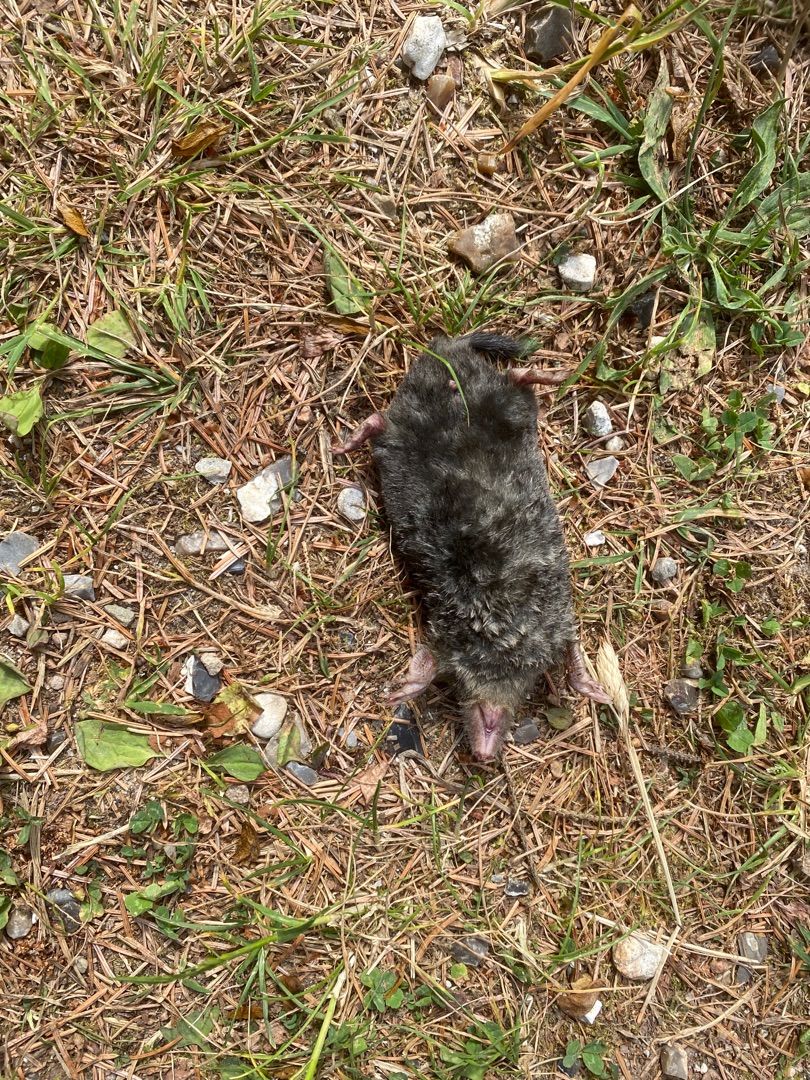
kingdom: Animalia
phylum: Chordata
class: Mammalia
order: Soricomorpha
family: Talpidae
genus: Talpa
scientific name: Talpa europaea
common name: Muldvarp
